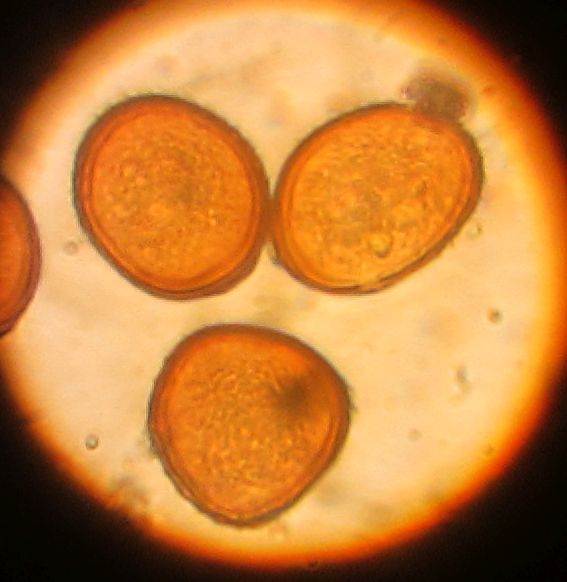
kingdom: Fungi
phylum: Basidiomycota
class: Pucciniomycetes
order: Pucciniales
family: Pucciniaceae
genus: Puccinia
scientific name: Puccinia pulverulenta
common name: dueurt-tvecellerust
